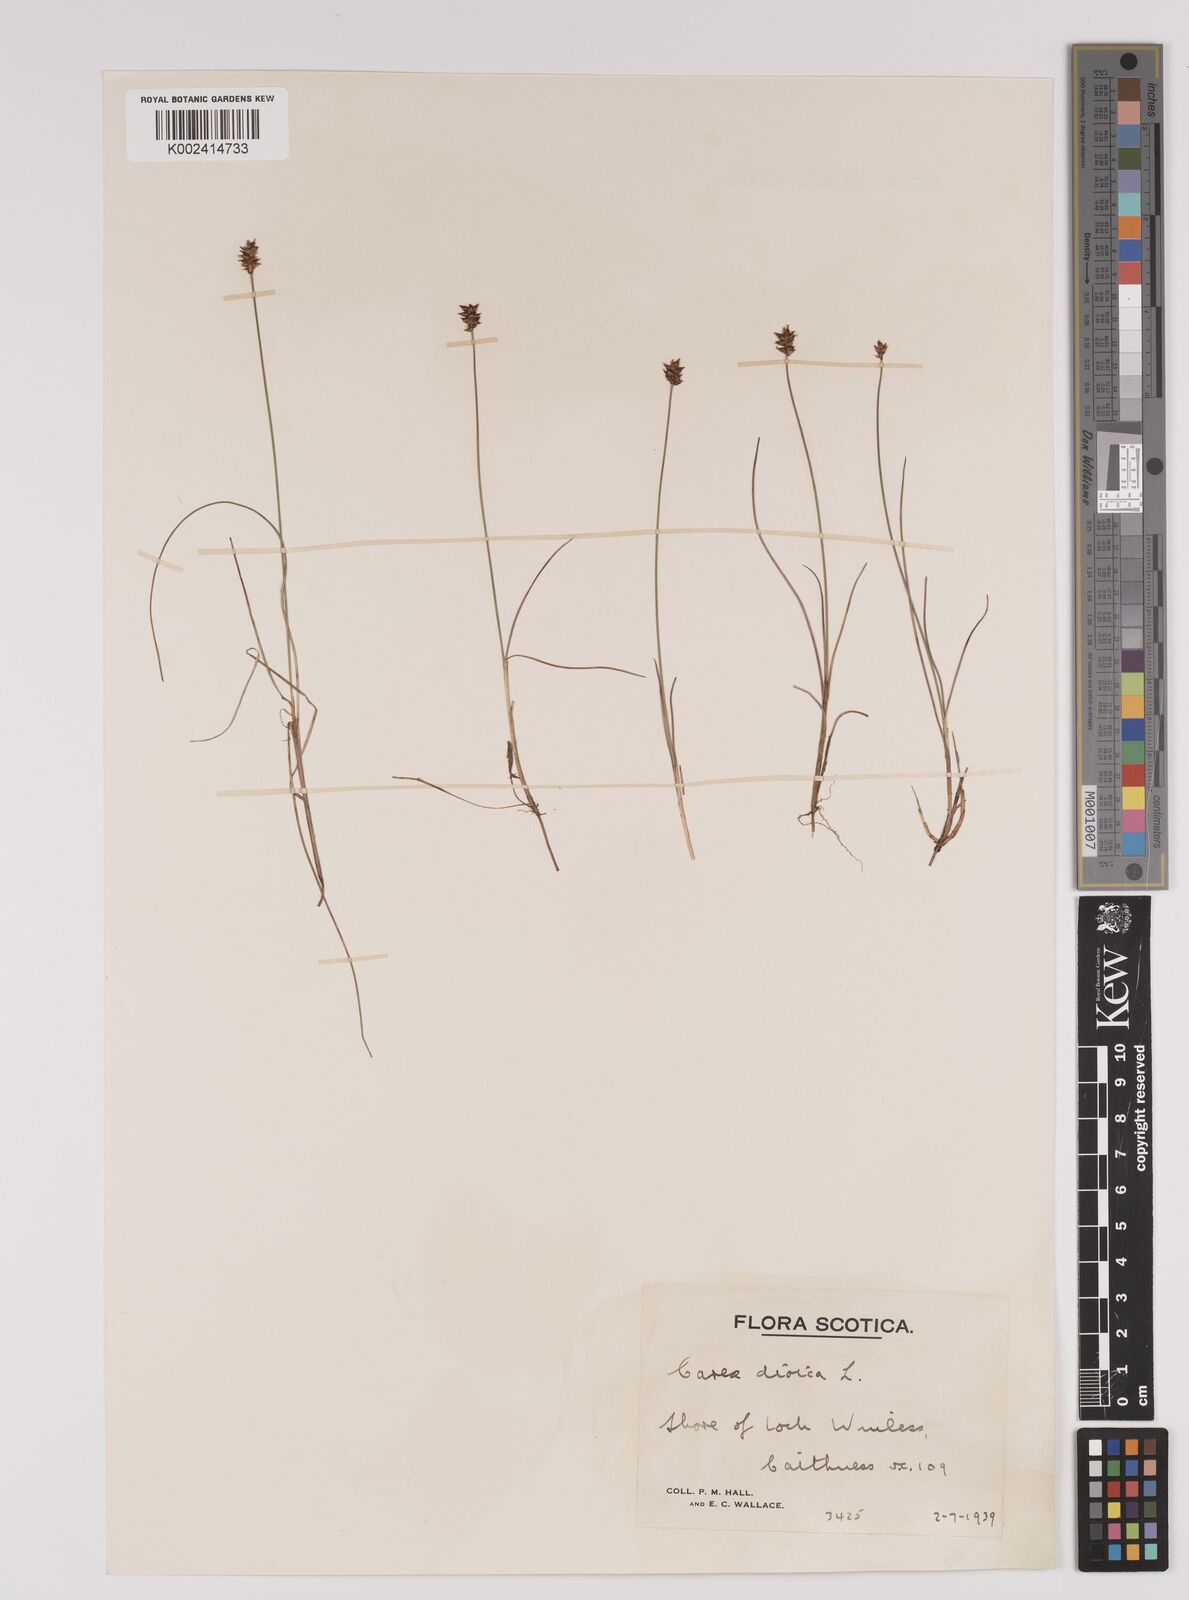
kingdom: Plantae
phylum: Tracheophyta
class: Liliopsida
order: Poales
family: Cyperaceae
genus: Carex
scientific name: Carex dioica
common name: Dioecious sedge
